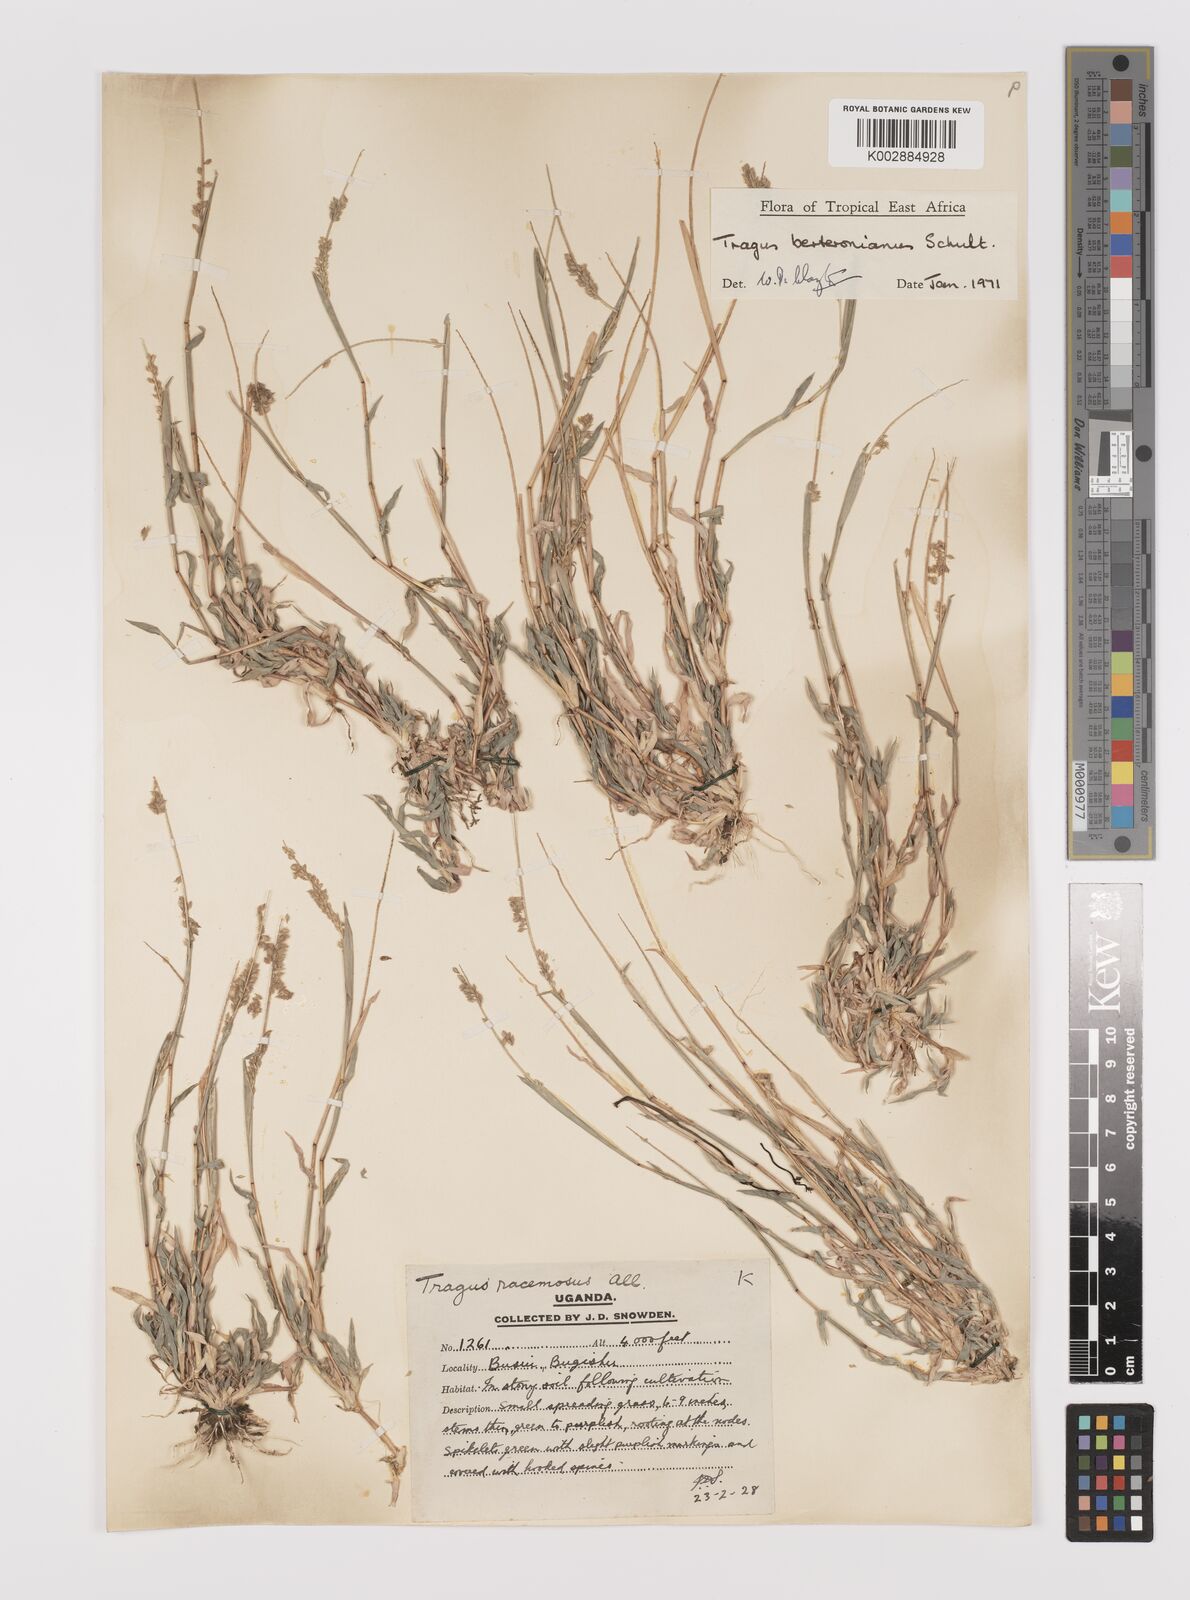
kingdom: Plantae
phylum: Tracheophyta
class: Liliopsida
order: Poales
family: Poaceae
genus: Tragus
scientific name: Tragus berteronianus
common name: African bur-grass
